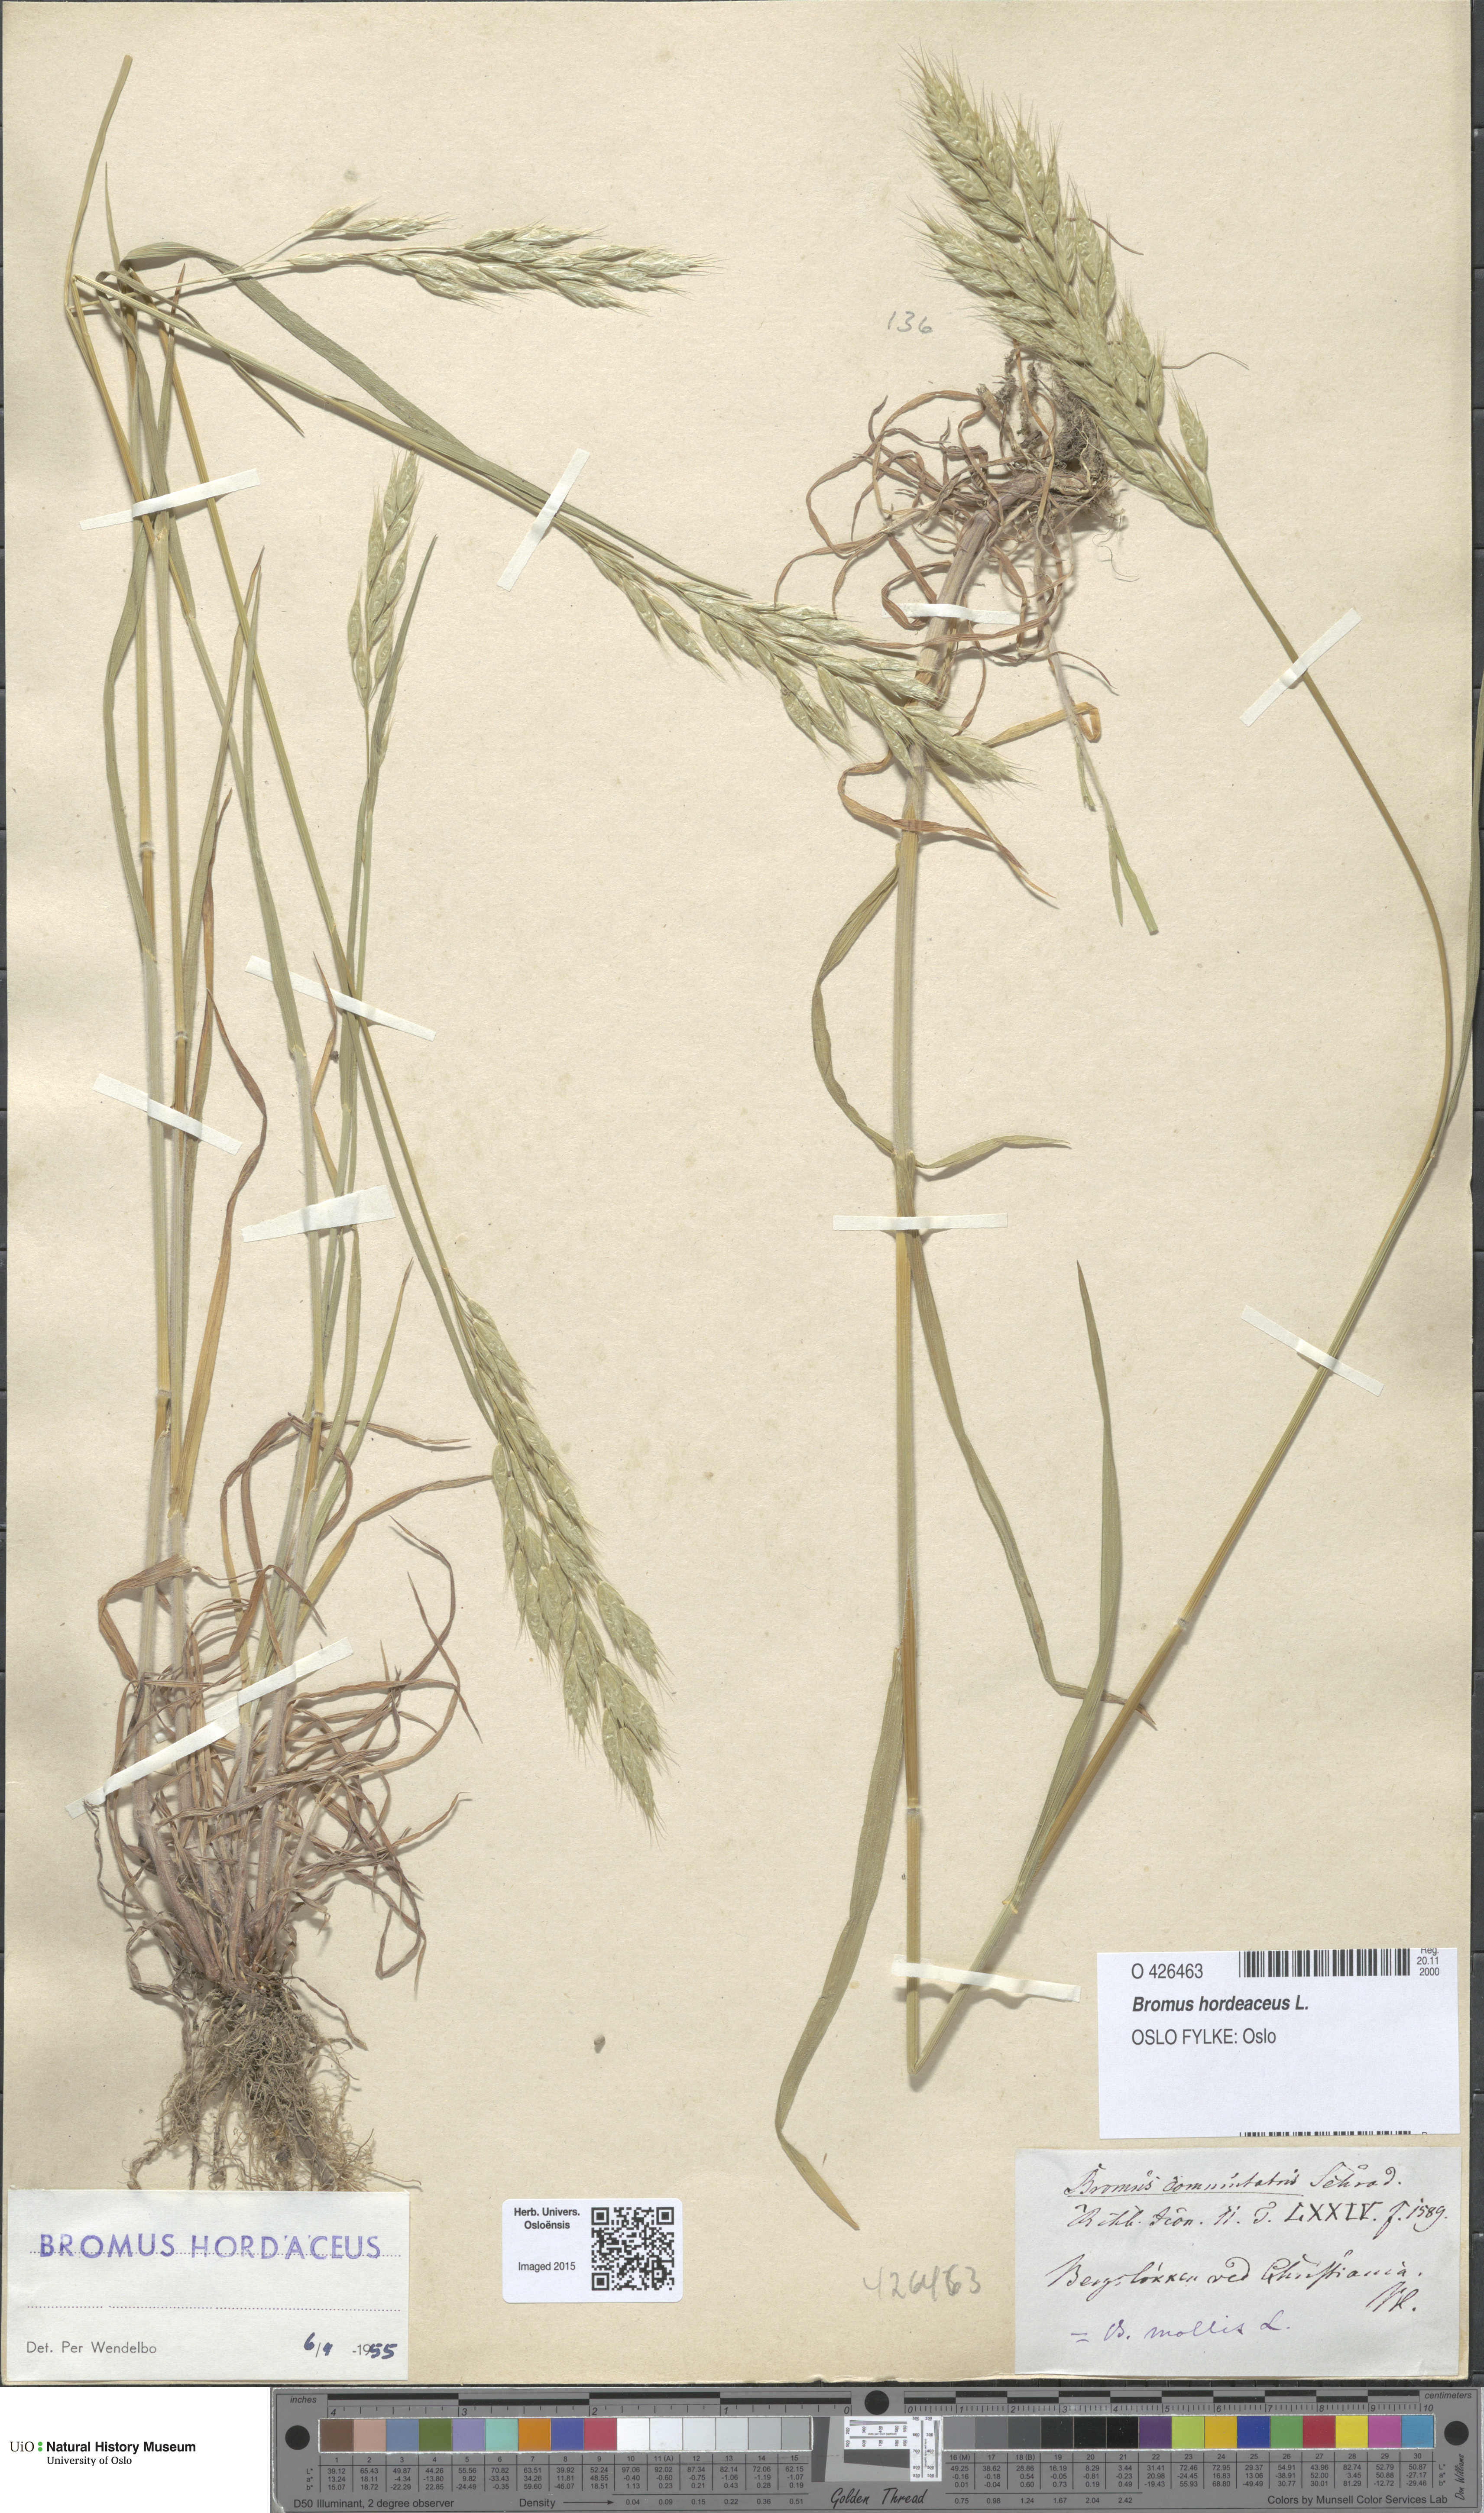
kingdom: Plantae
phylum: Tracheophyta
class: Liliopsida
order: Poales
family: Poaceae
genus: Bromus
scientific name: Bromus hordeaceus
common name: Soft brome
